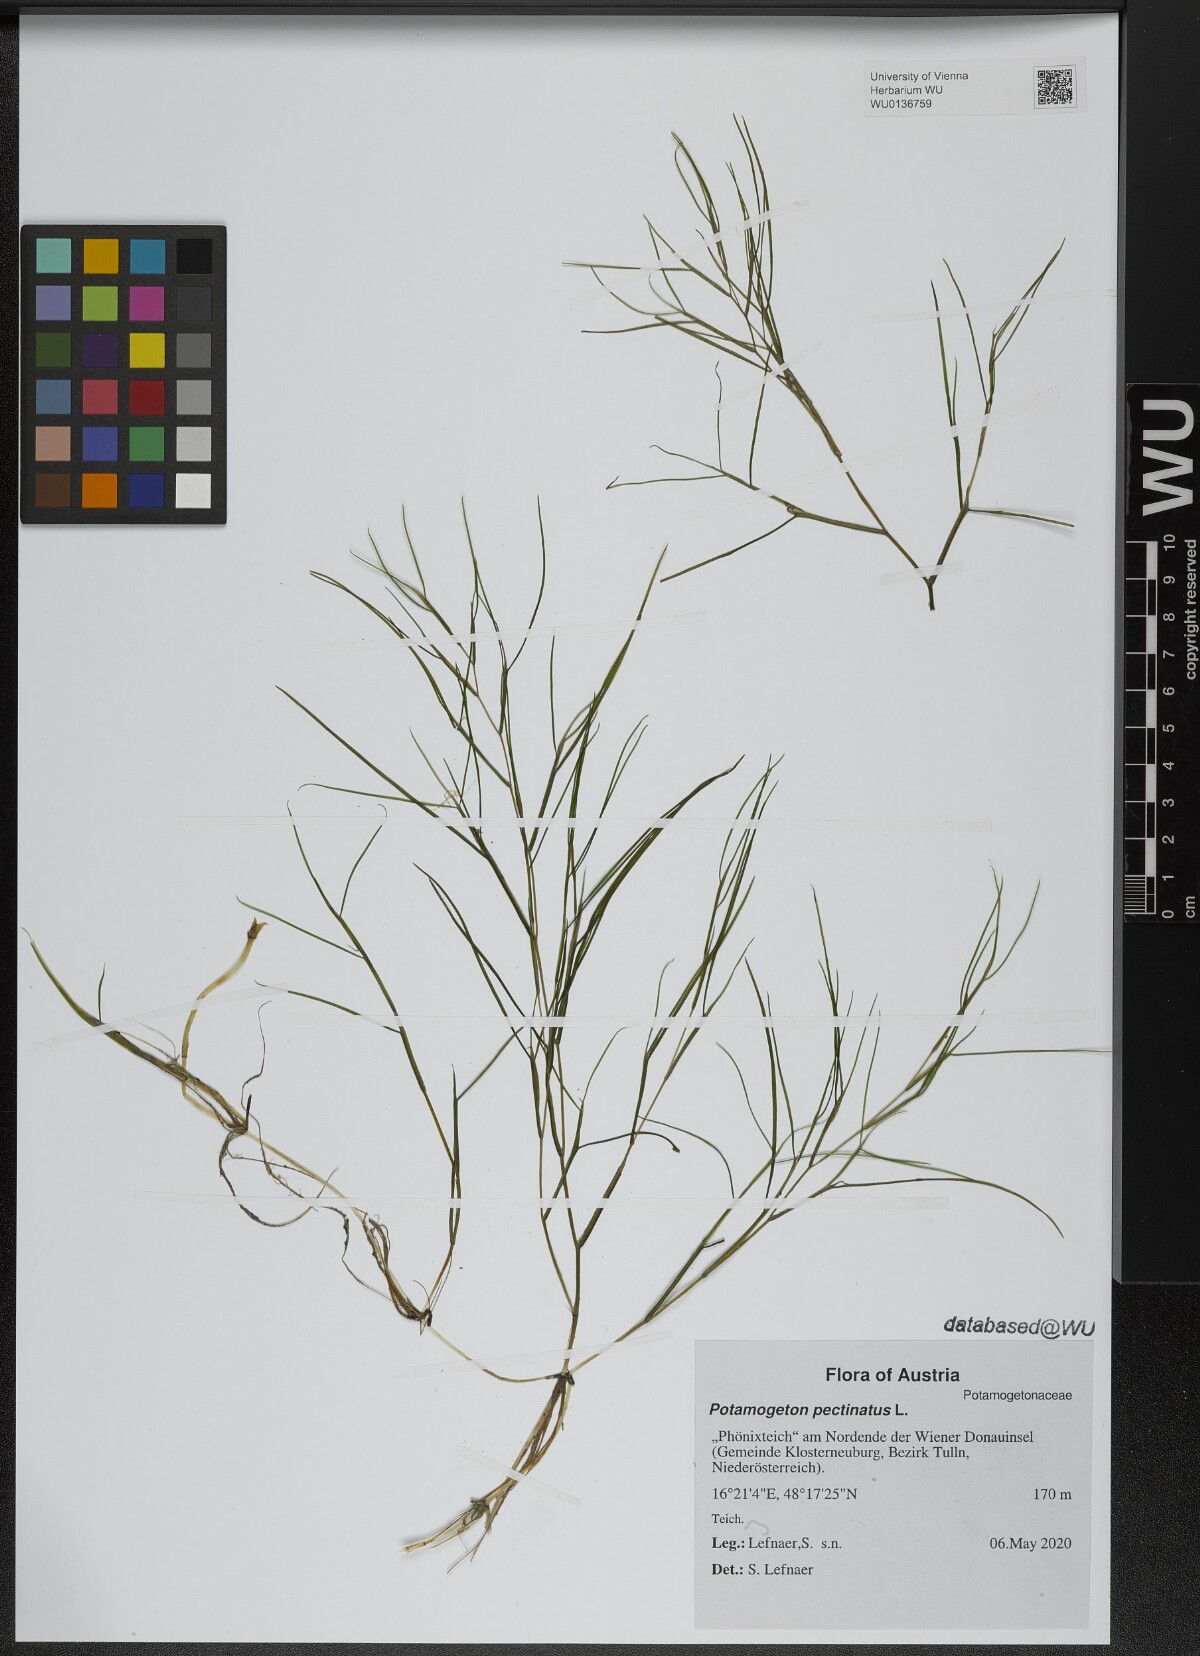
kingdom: Plantae
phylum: Tracheophyta
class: Liliopsida
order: Alismatales
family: Potamogetonaceae
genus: Stuckenia
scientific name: Stuckenia pectinata
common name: Sago pondweed
